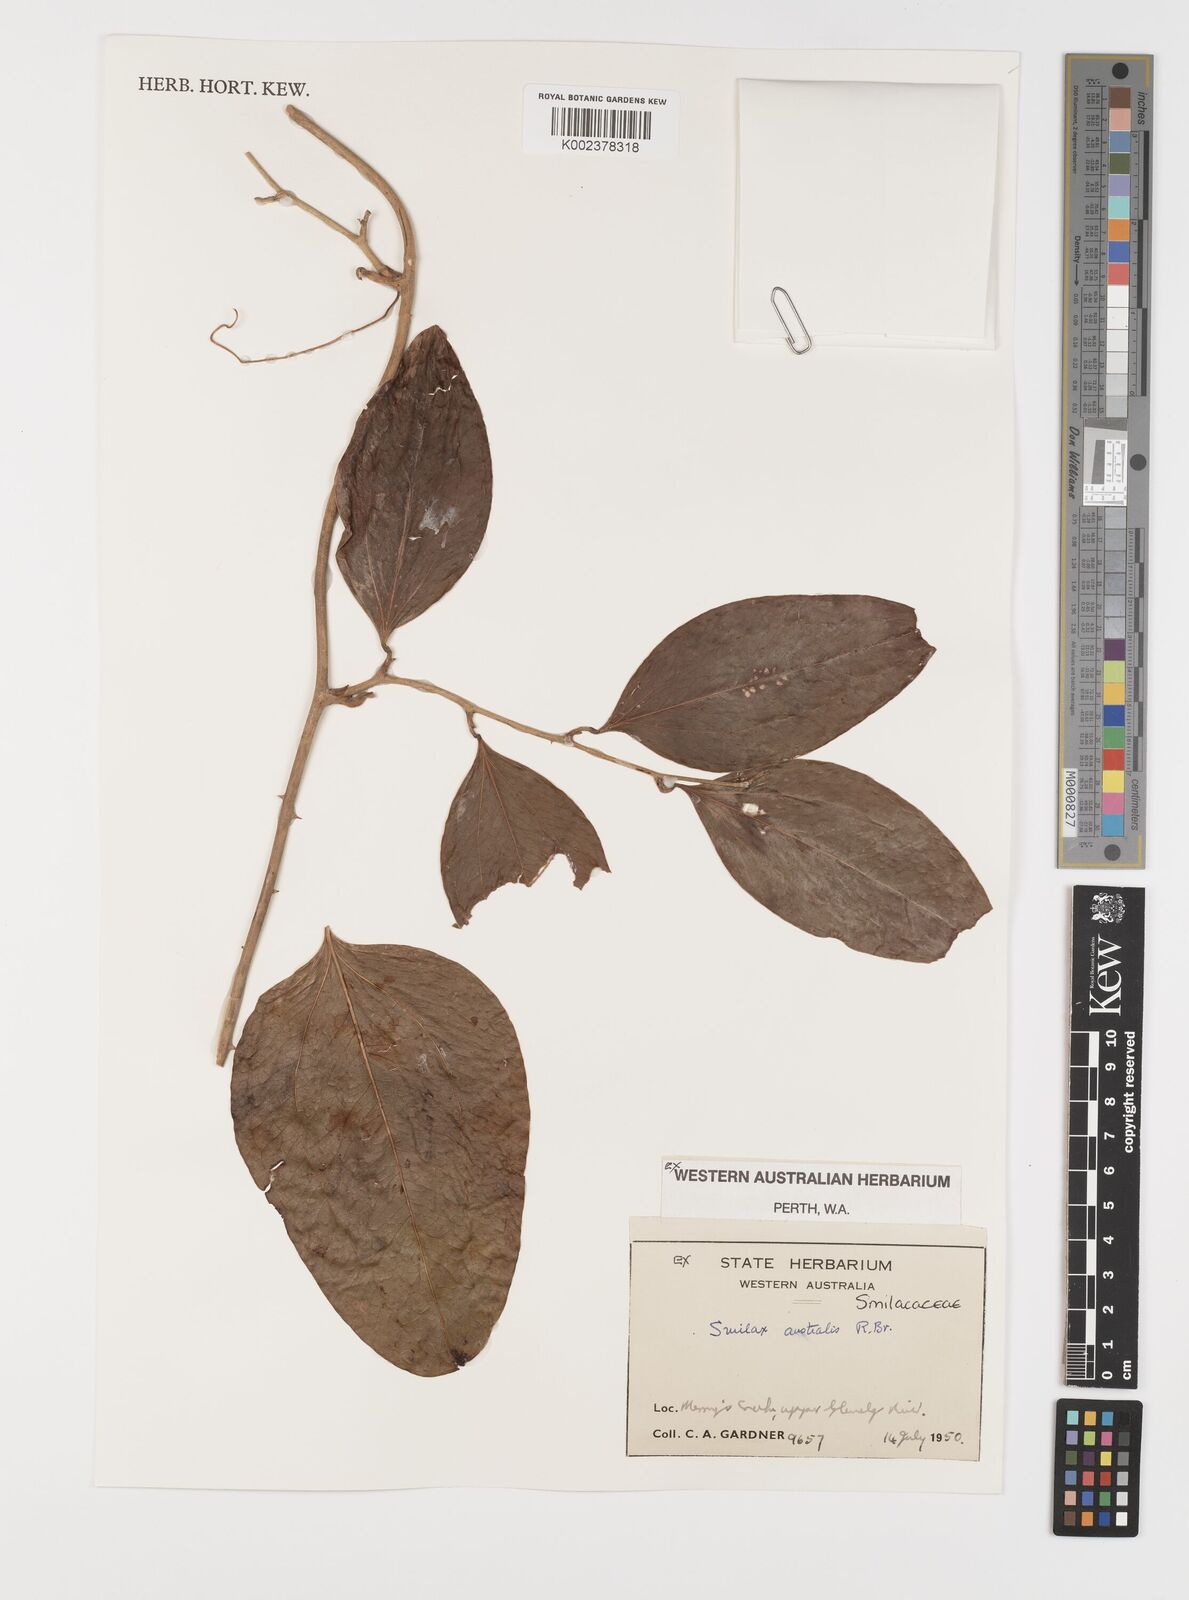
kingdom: Plantae
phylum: Tracheophyta
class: Liliopsida
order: Liliales
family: Smilacaceae
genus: Smilax
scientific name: Smilax australis
